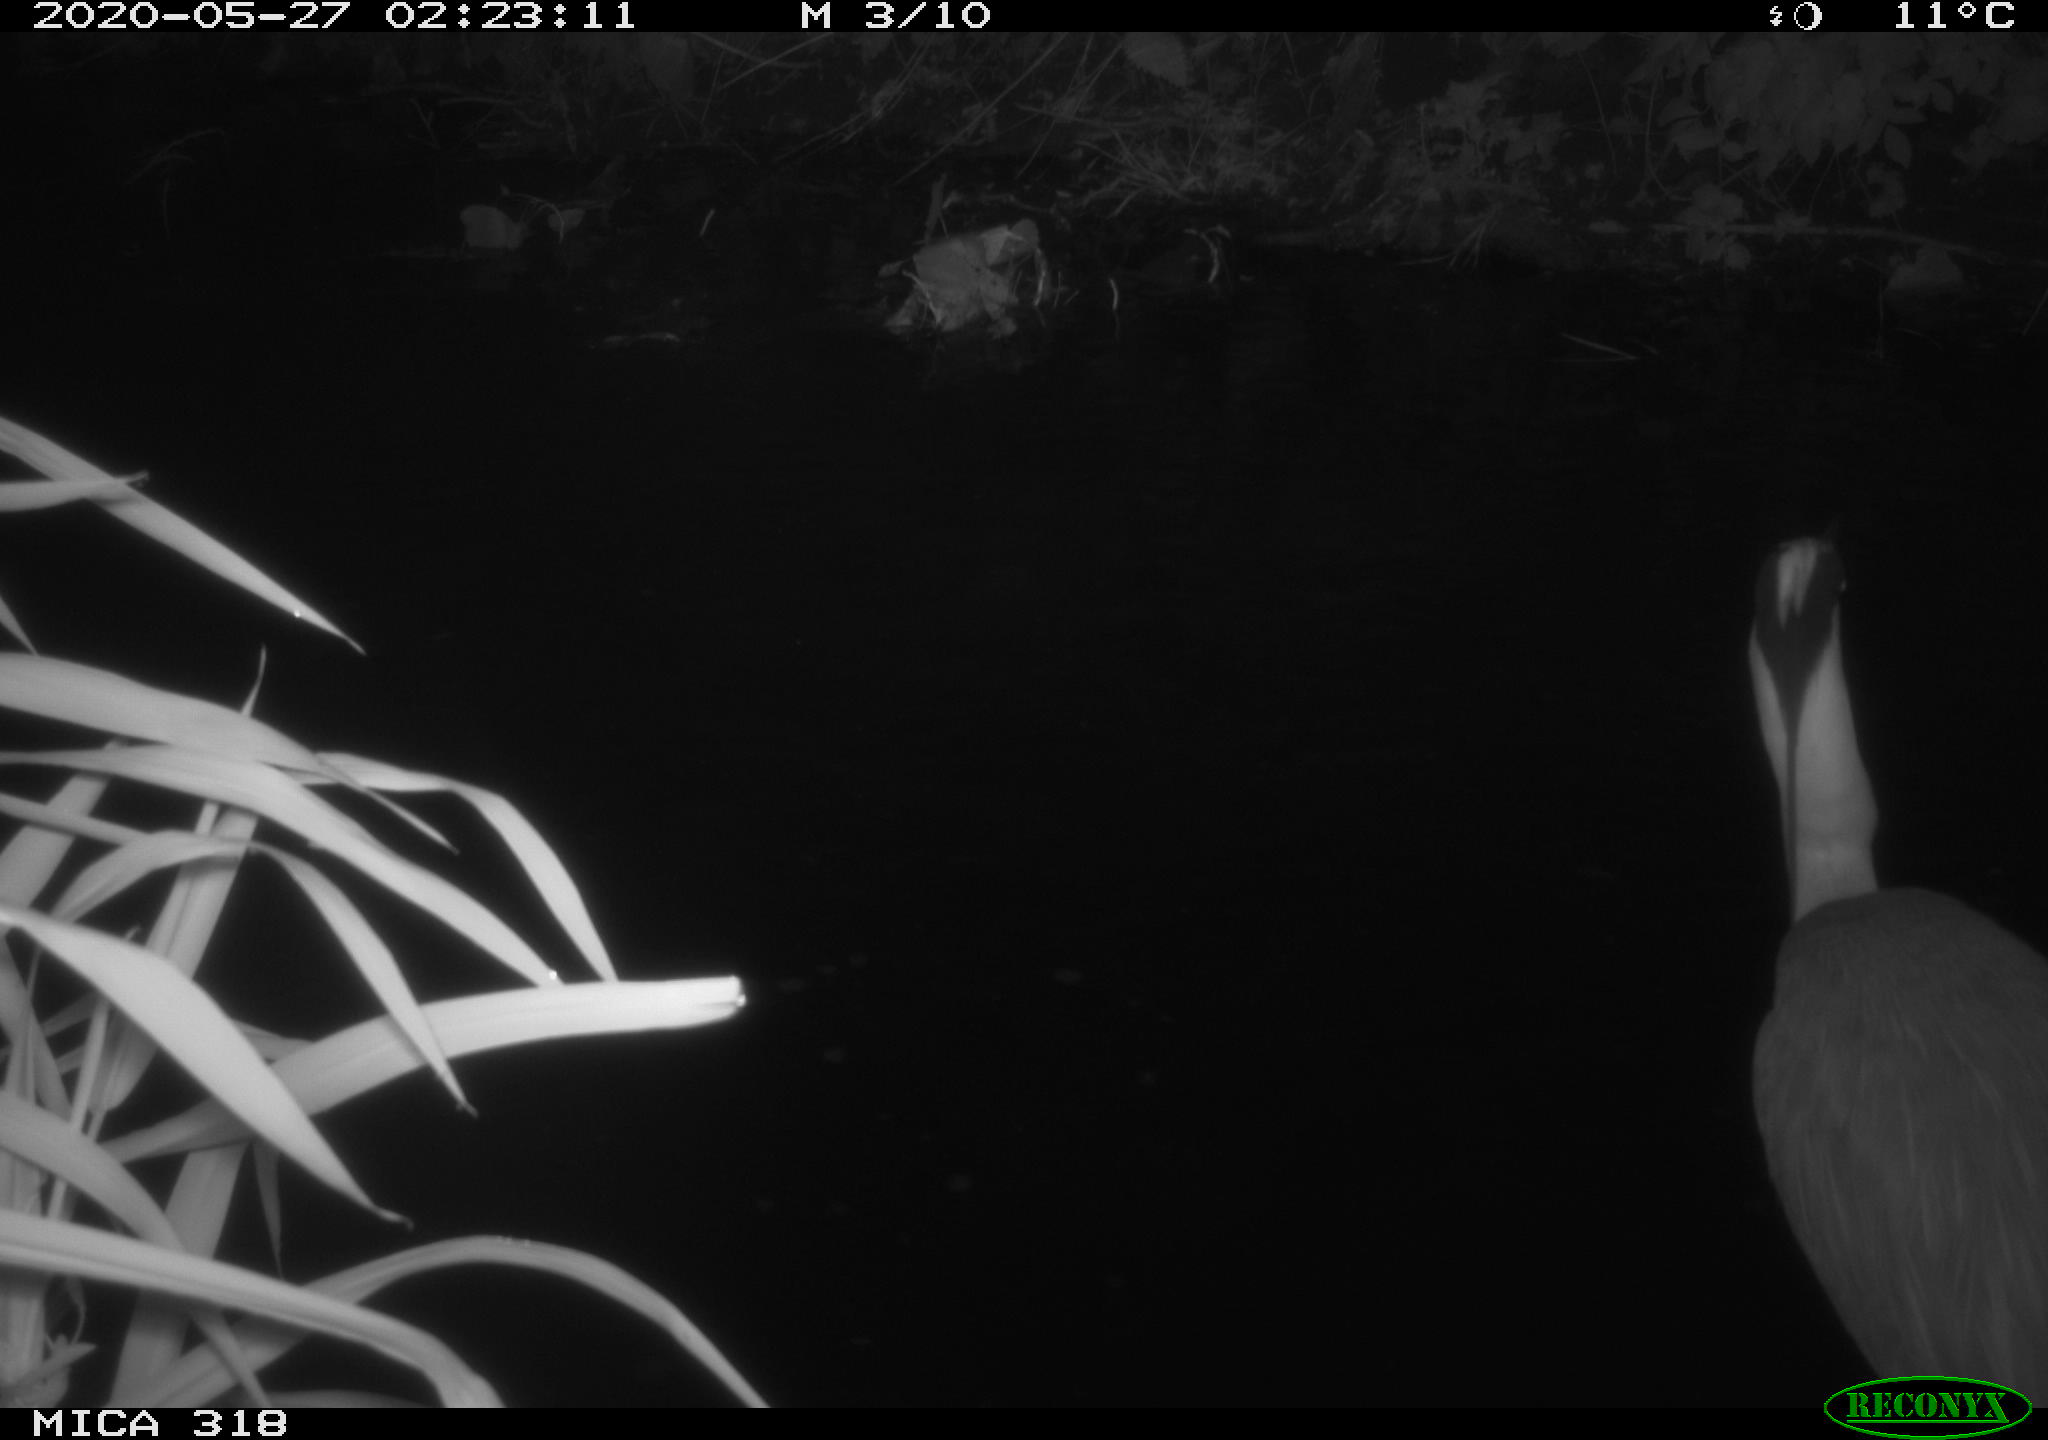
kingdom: Animalia
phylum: Chordata
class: Aves
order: Pelecaniformes
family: Ardeidae
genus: Ardea
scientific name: Ardea cinerea
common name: Grey heron
